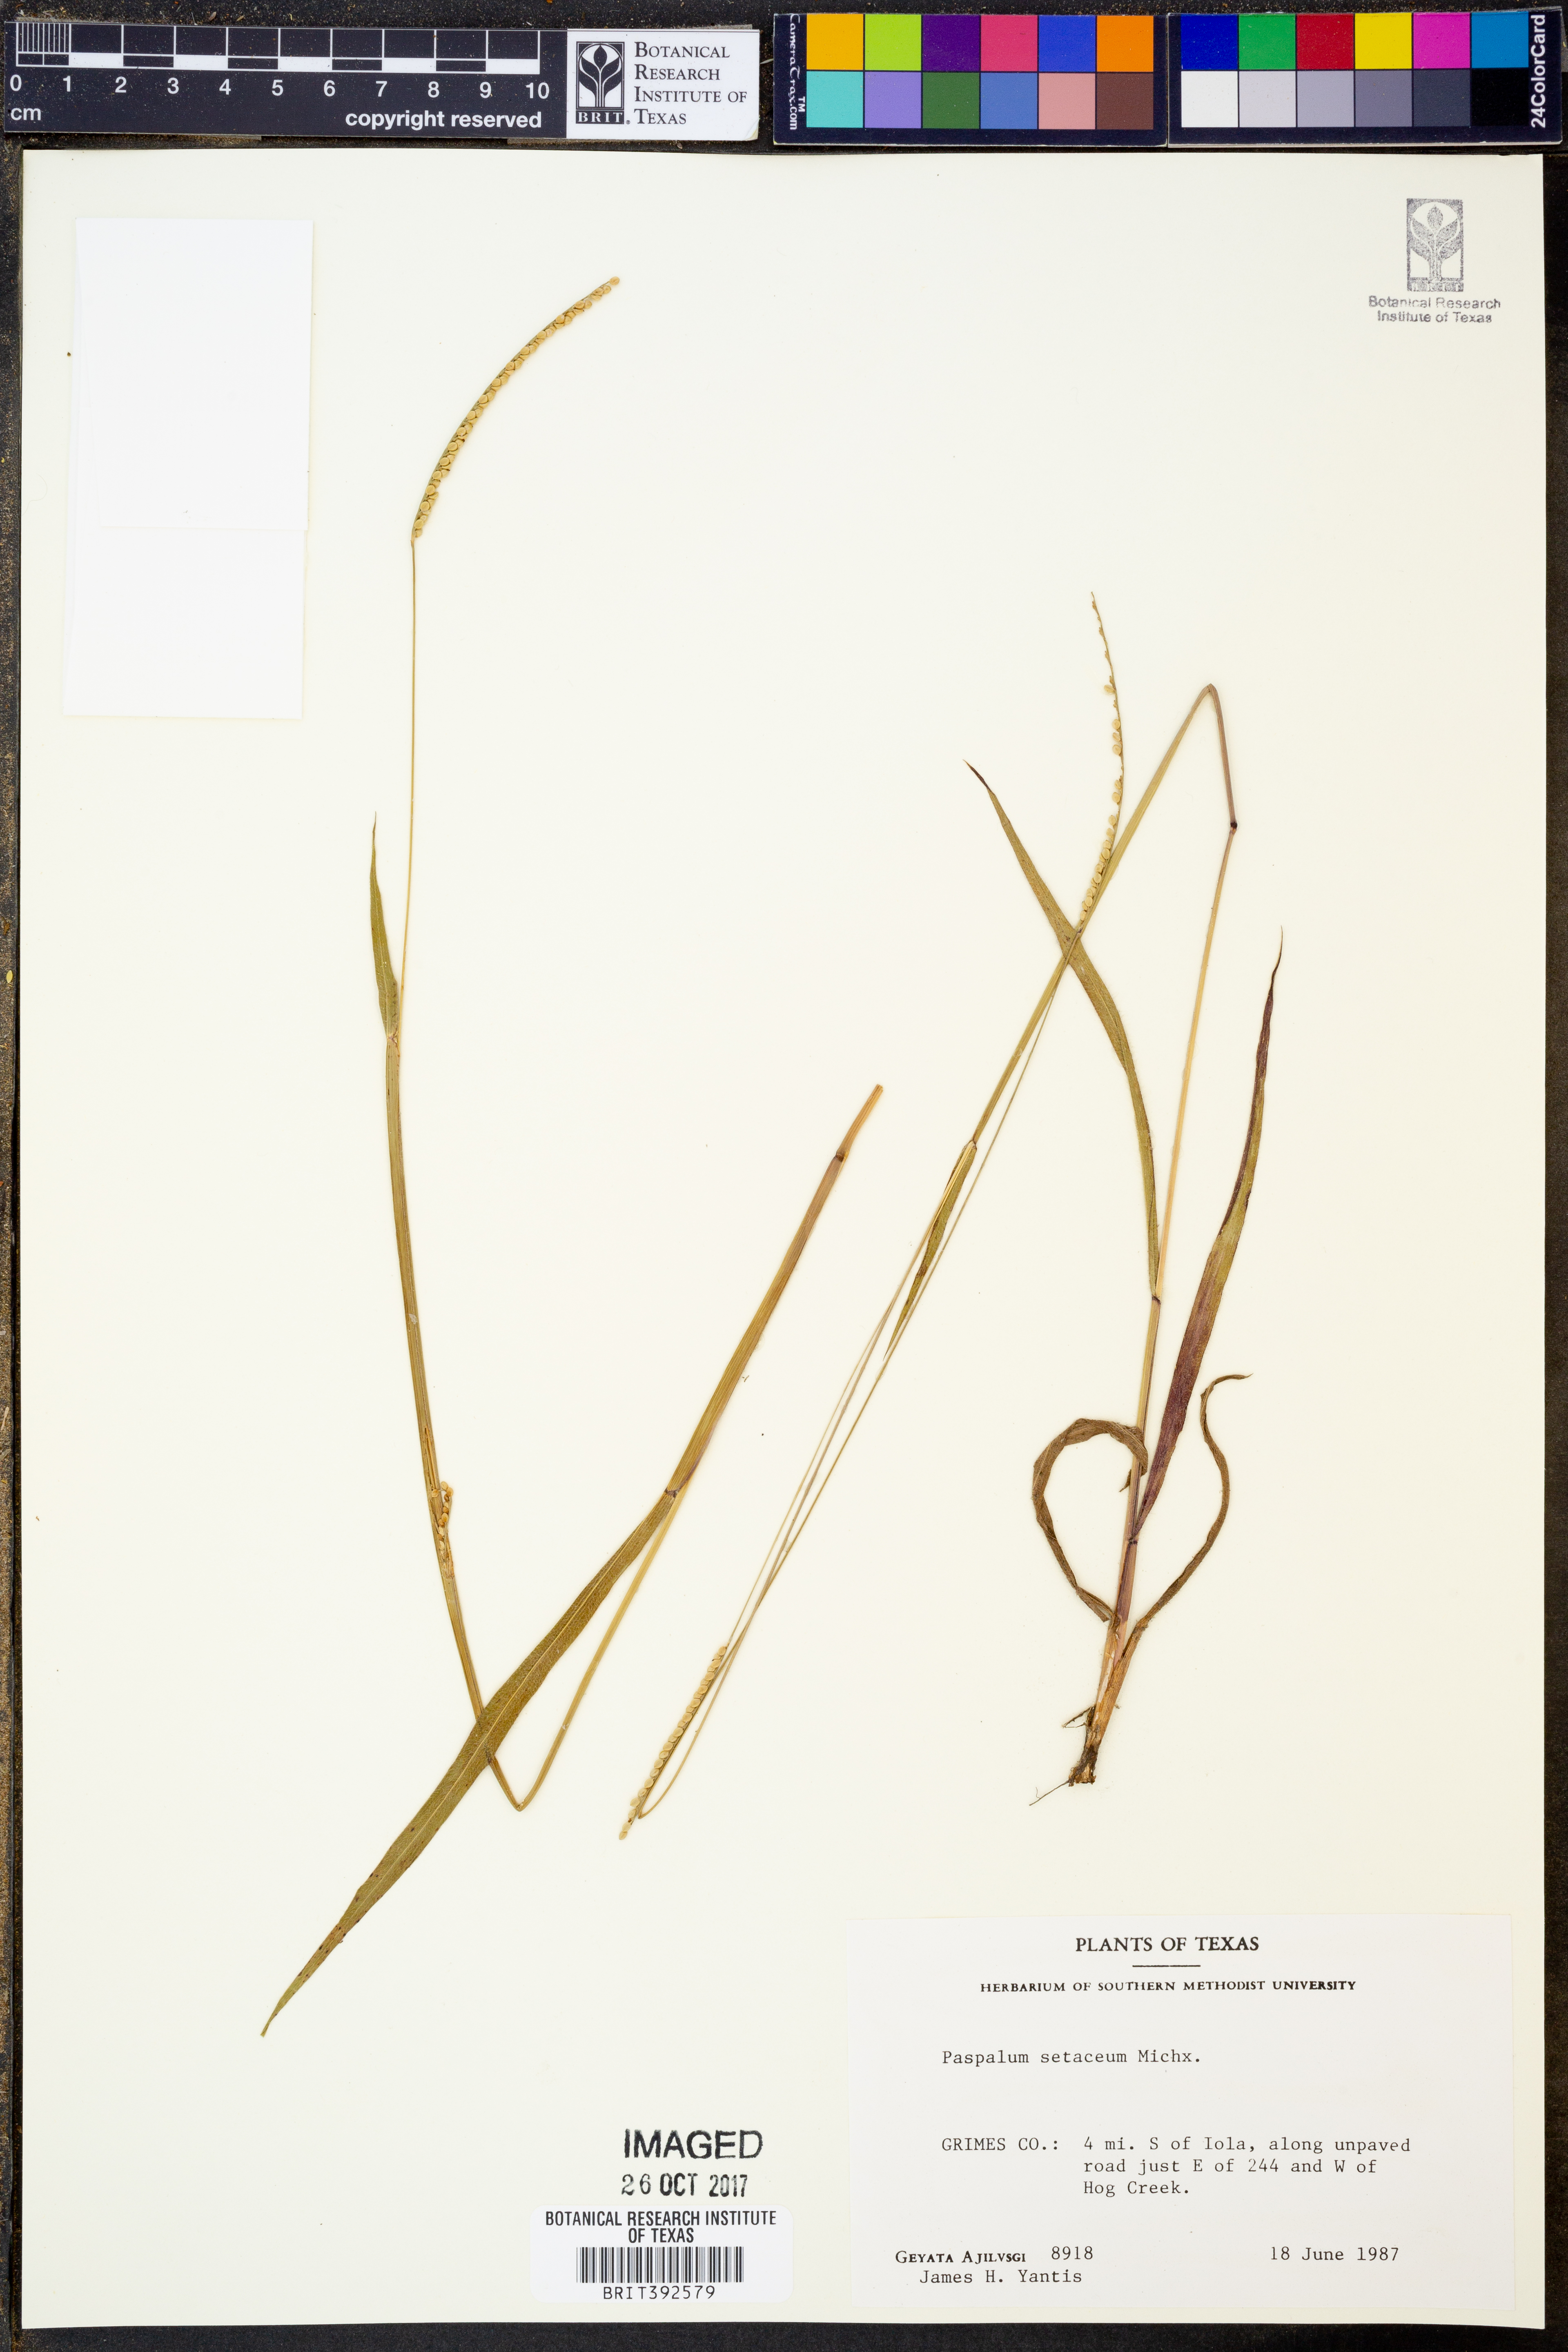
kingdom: Plantae
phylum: Tracheophyta
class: Liliopsida
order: Poales
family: Poaceae
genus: Paspalum
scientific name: Paspalum setaceum
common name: Slender paspalum
